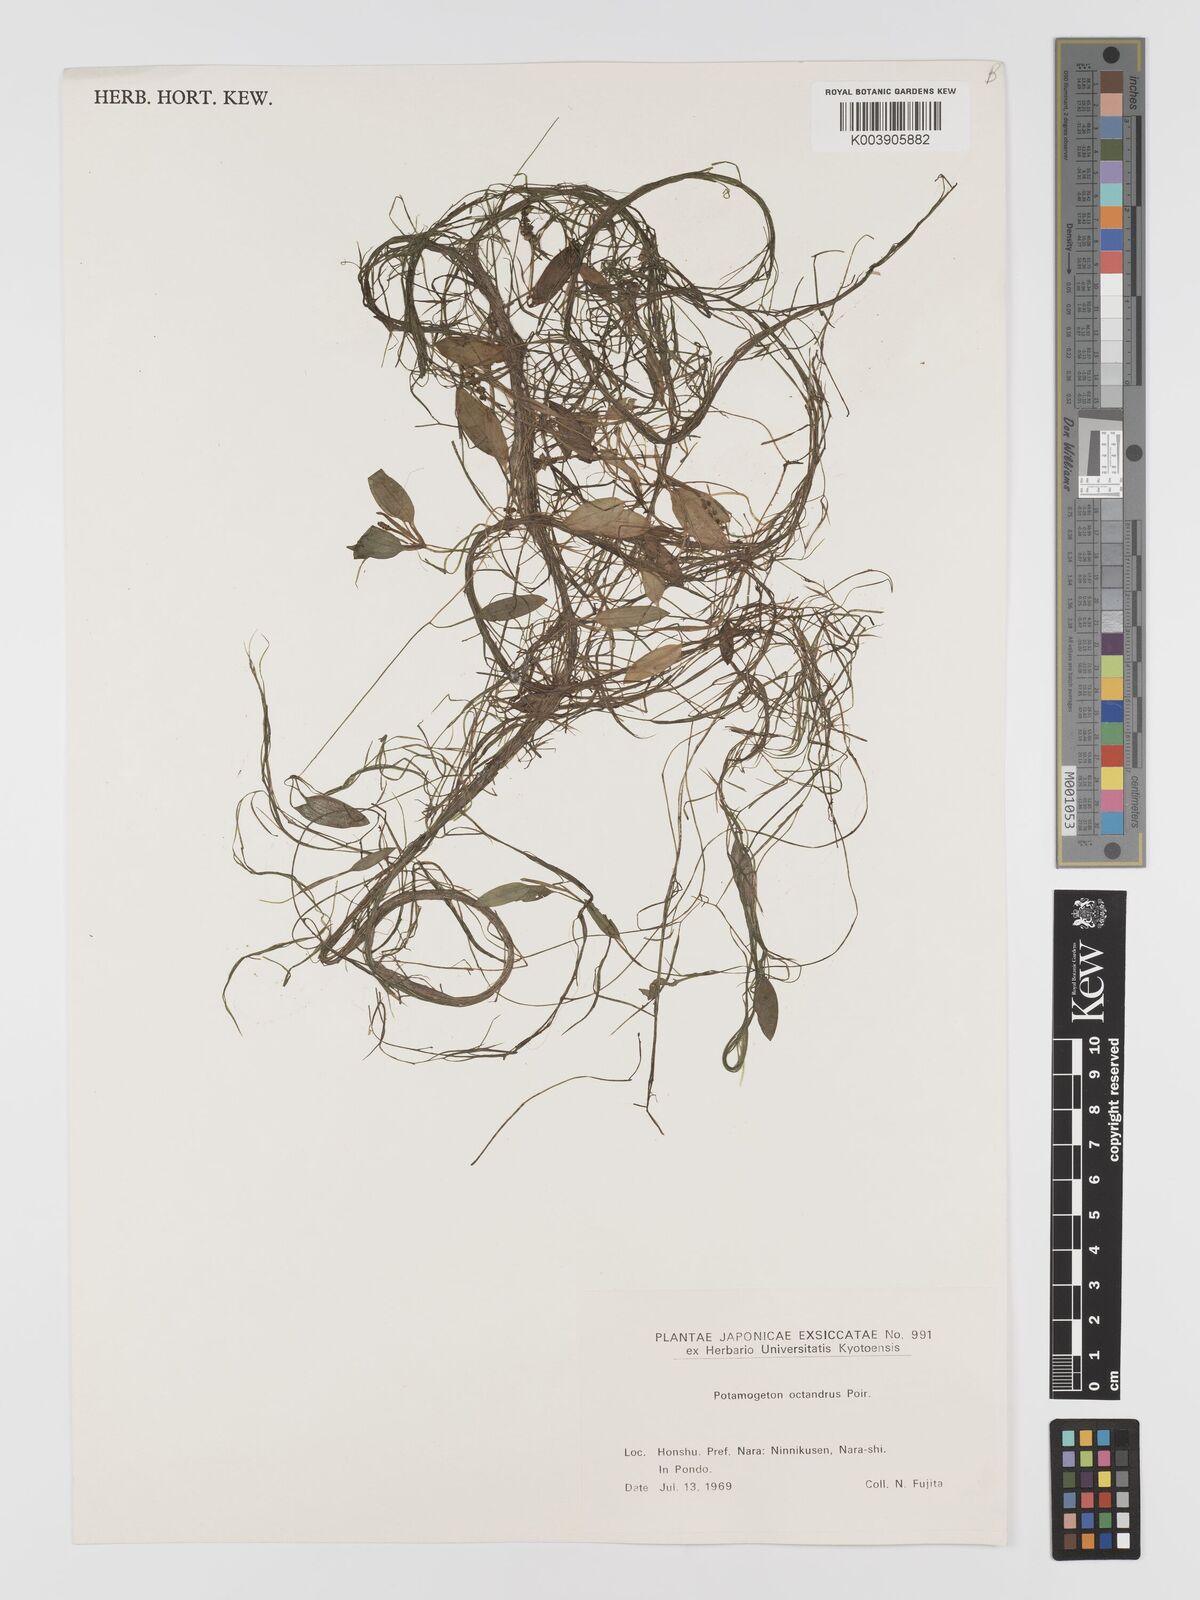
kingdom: Plantae
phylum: Tracheophyta
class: Liliopsida
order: Alismatales
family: Potamogetonaceae
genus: Potamogeton
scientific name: Potamogeton octandrus
